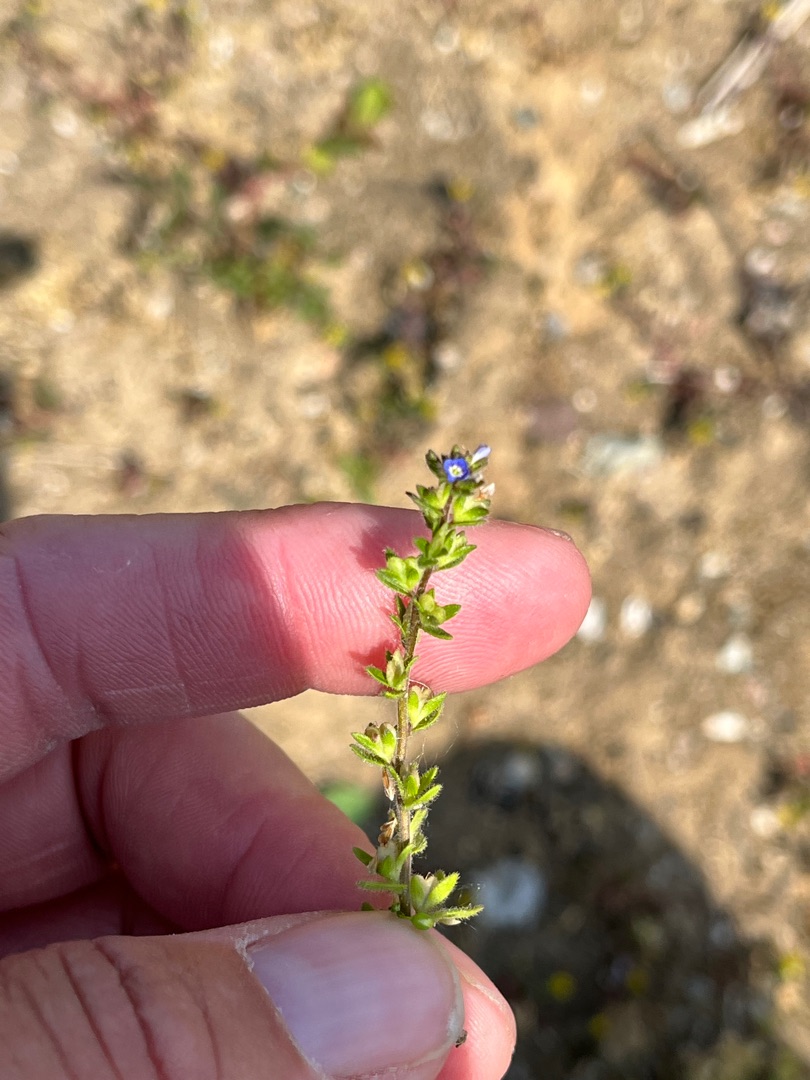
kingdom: Plantae
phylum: Tracheophyta
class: Magnoliopsida
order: Lamiales
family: Plantaginaceae
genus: Veronica
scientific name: Veronica arvensis
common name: Mark-ærenpris
